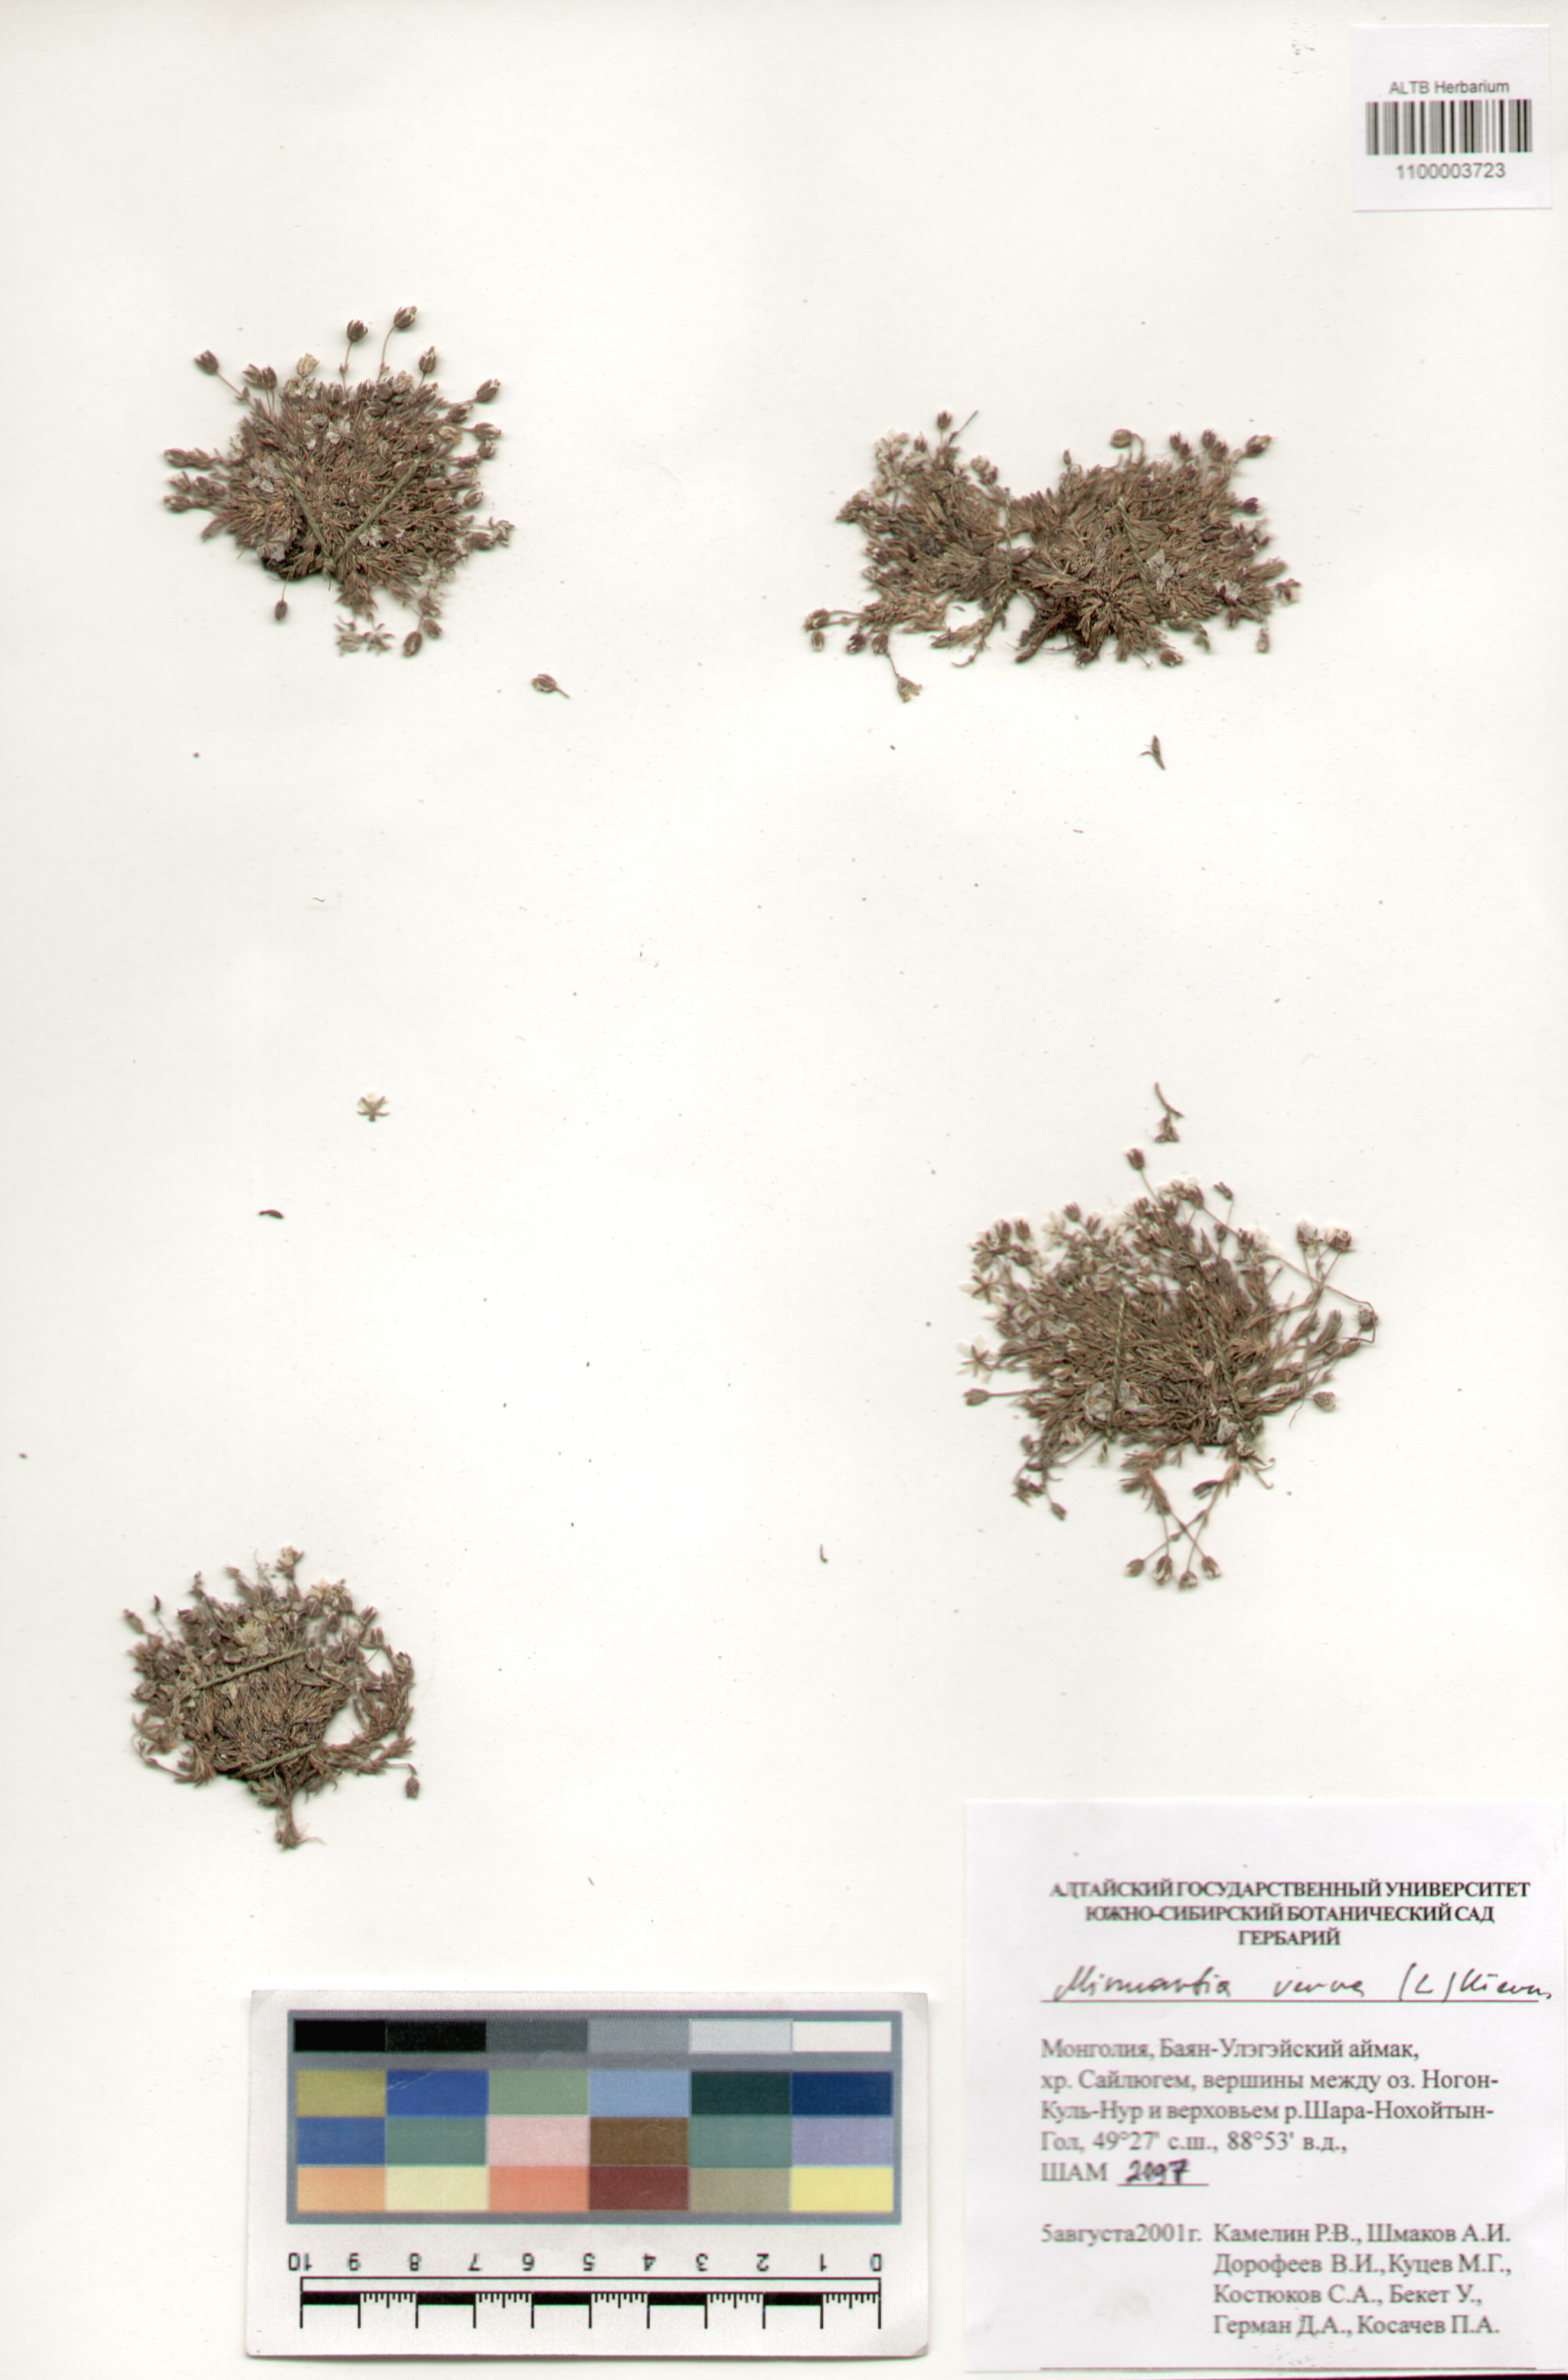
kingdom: Plantae
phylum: Tracheophyta
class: Magnoliopsida
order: Caryophyllales
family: Caryophyllaceae
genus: Sabulina
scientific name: Sabulina verna
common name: Spring sandwort
